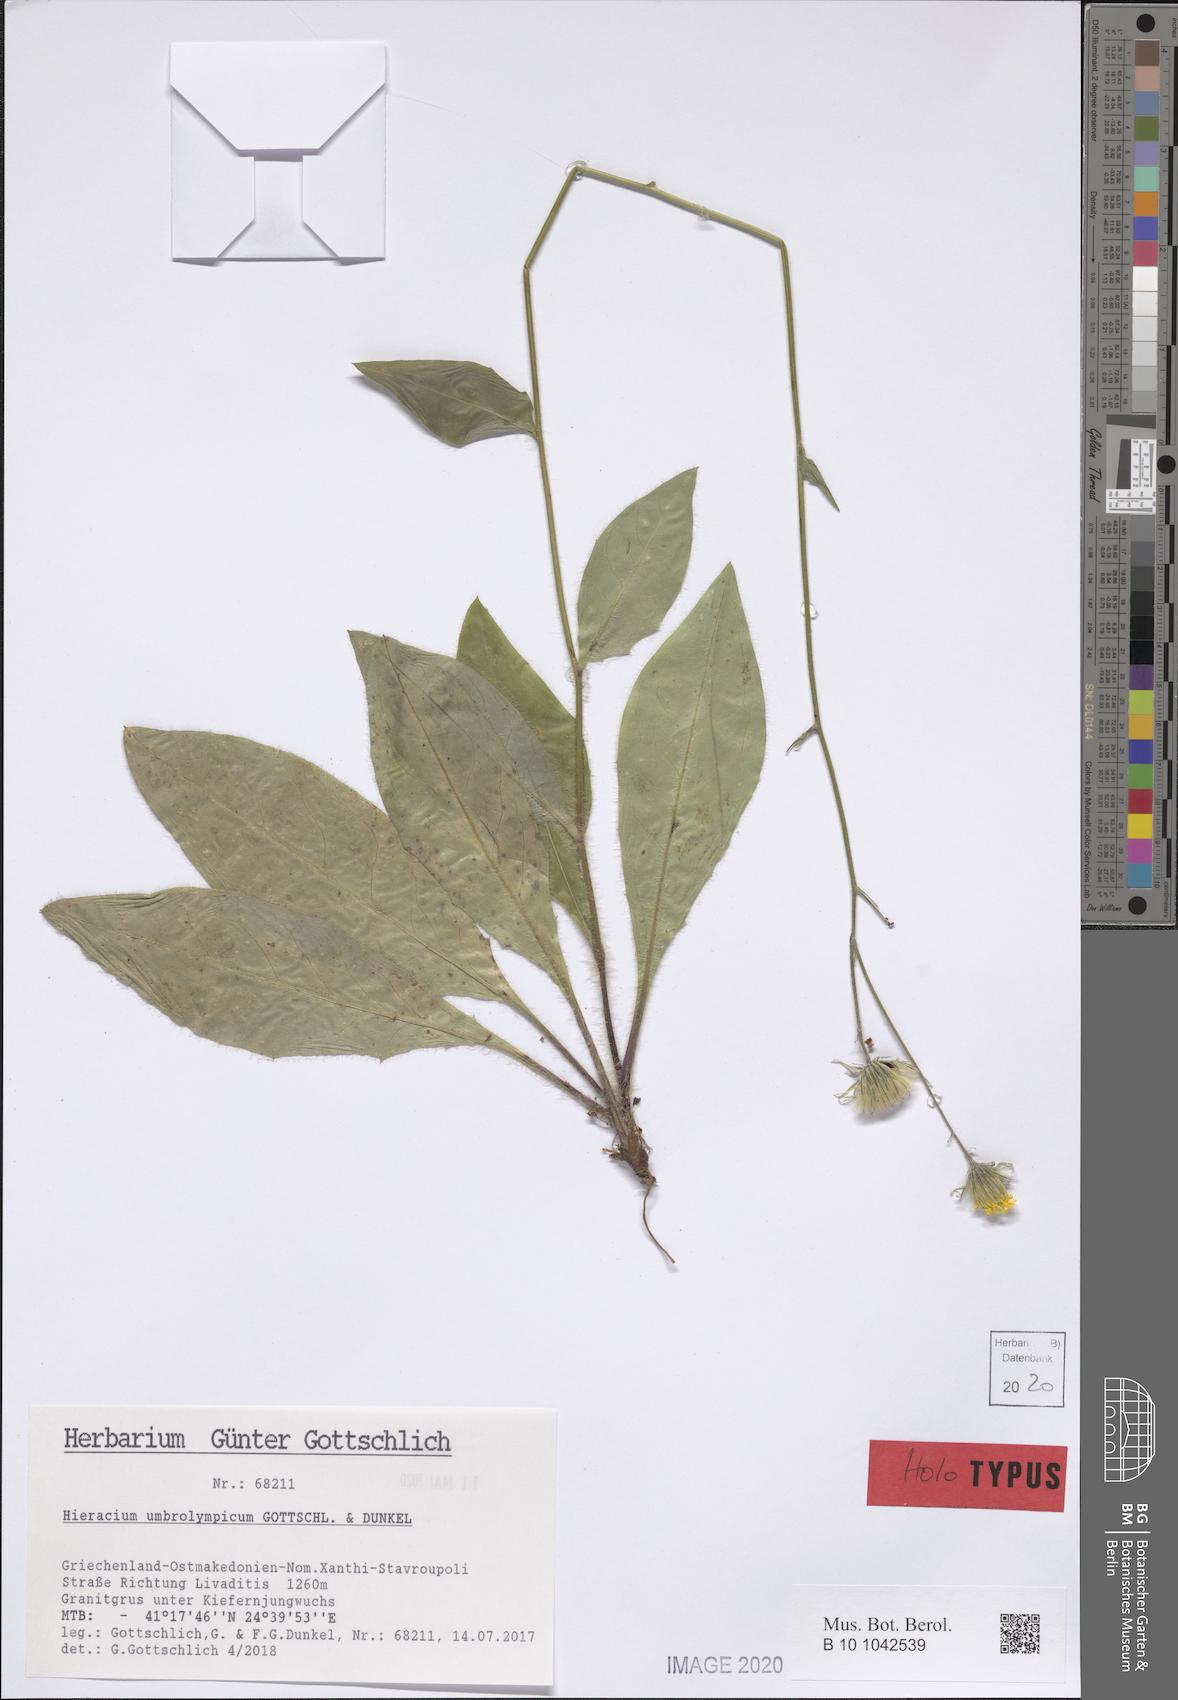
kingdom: Plantae
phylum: Tracheophyta
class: Magnoliopsida
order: Asterales
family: Asteraceae
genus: Hieracium
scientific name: Hieracium umbrolympicum
